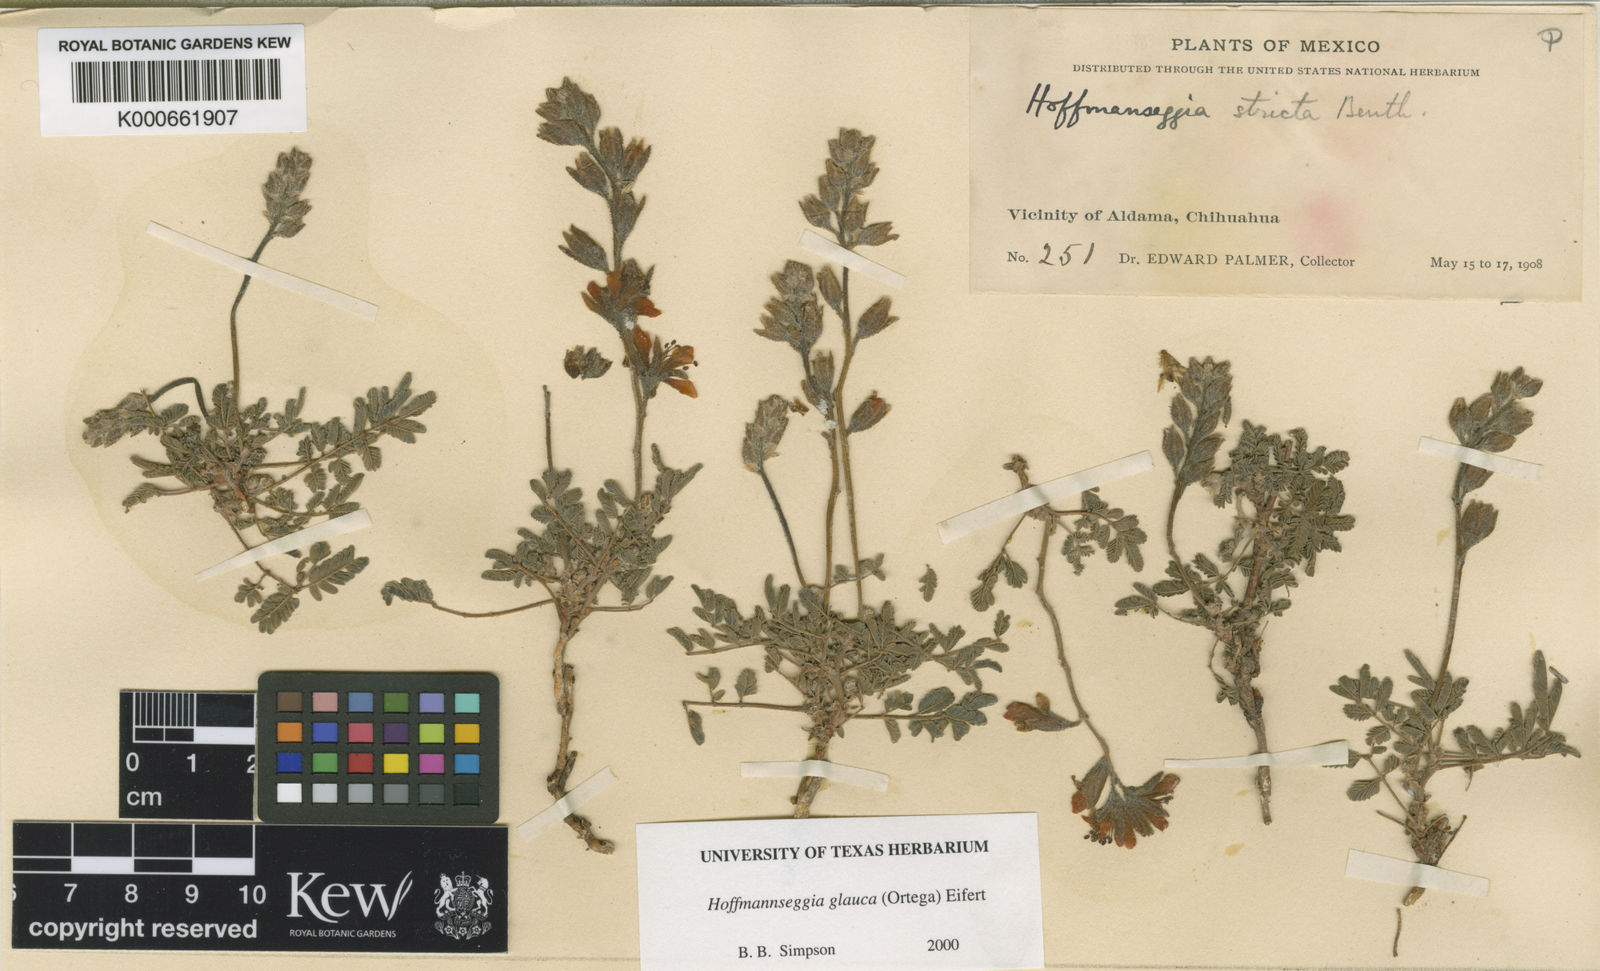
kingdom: Plantae
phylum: Tracheophyta
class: Magnoliopsida
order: Fabales
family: Fabaceae
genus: Hoffmannseggia
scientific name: Hoffmannseggia glauca
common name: Pignut
